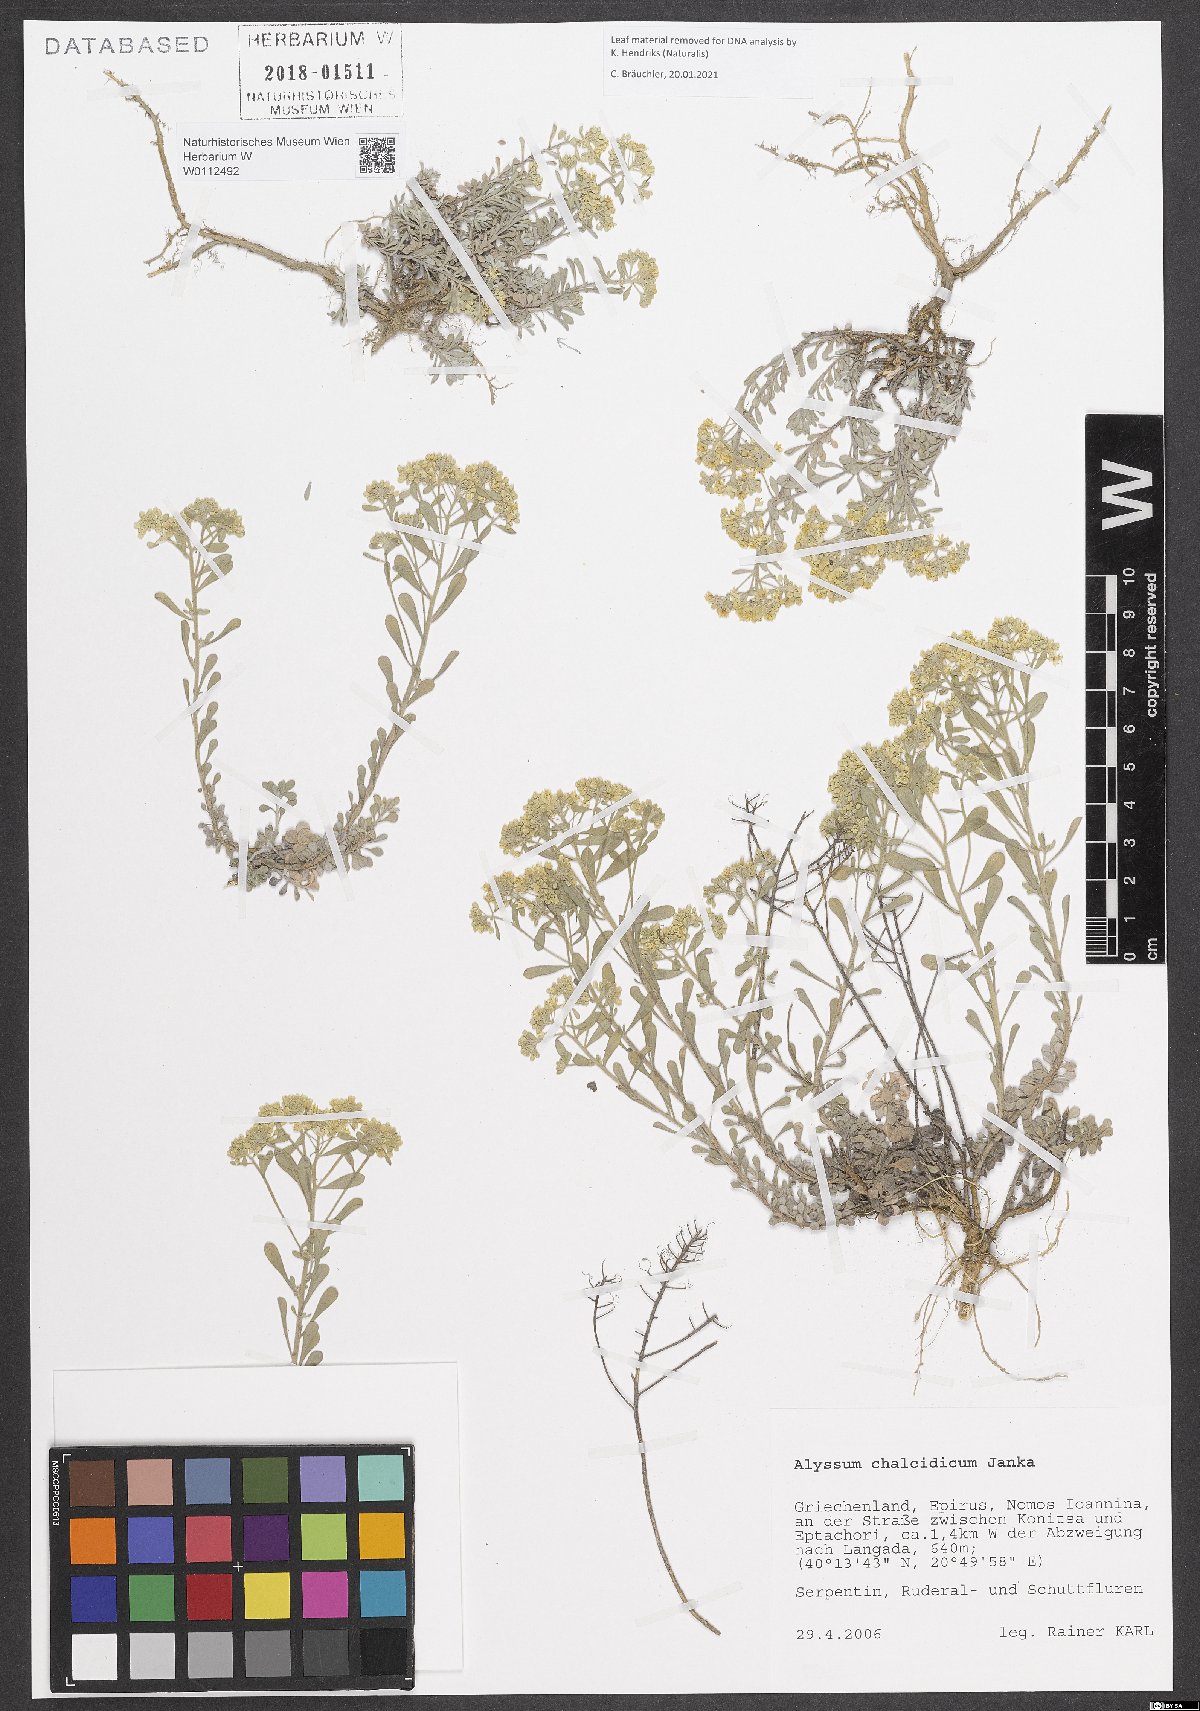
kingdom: Plantae
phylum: Tracheophyta
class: Magnoliopsida
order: Brassicales
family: Brassicaceae
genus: Odontarrhena
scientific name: Odontarrhena chalcidica
